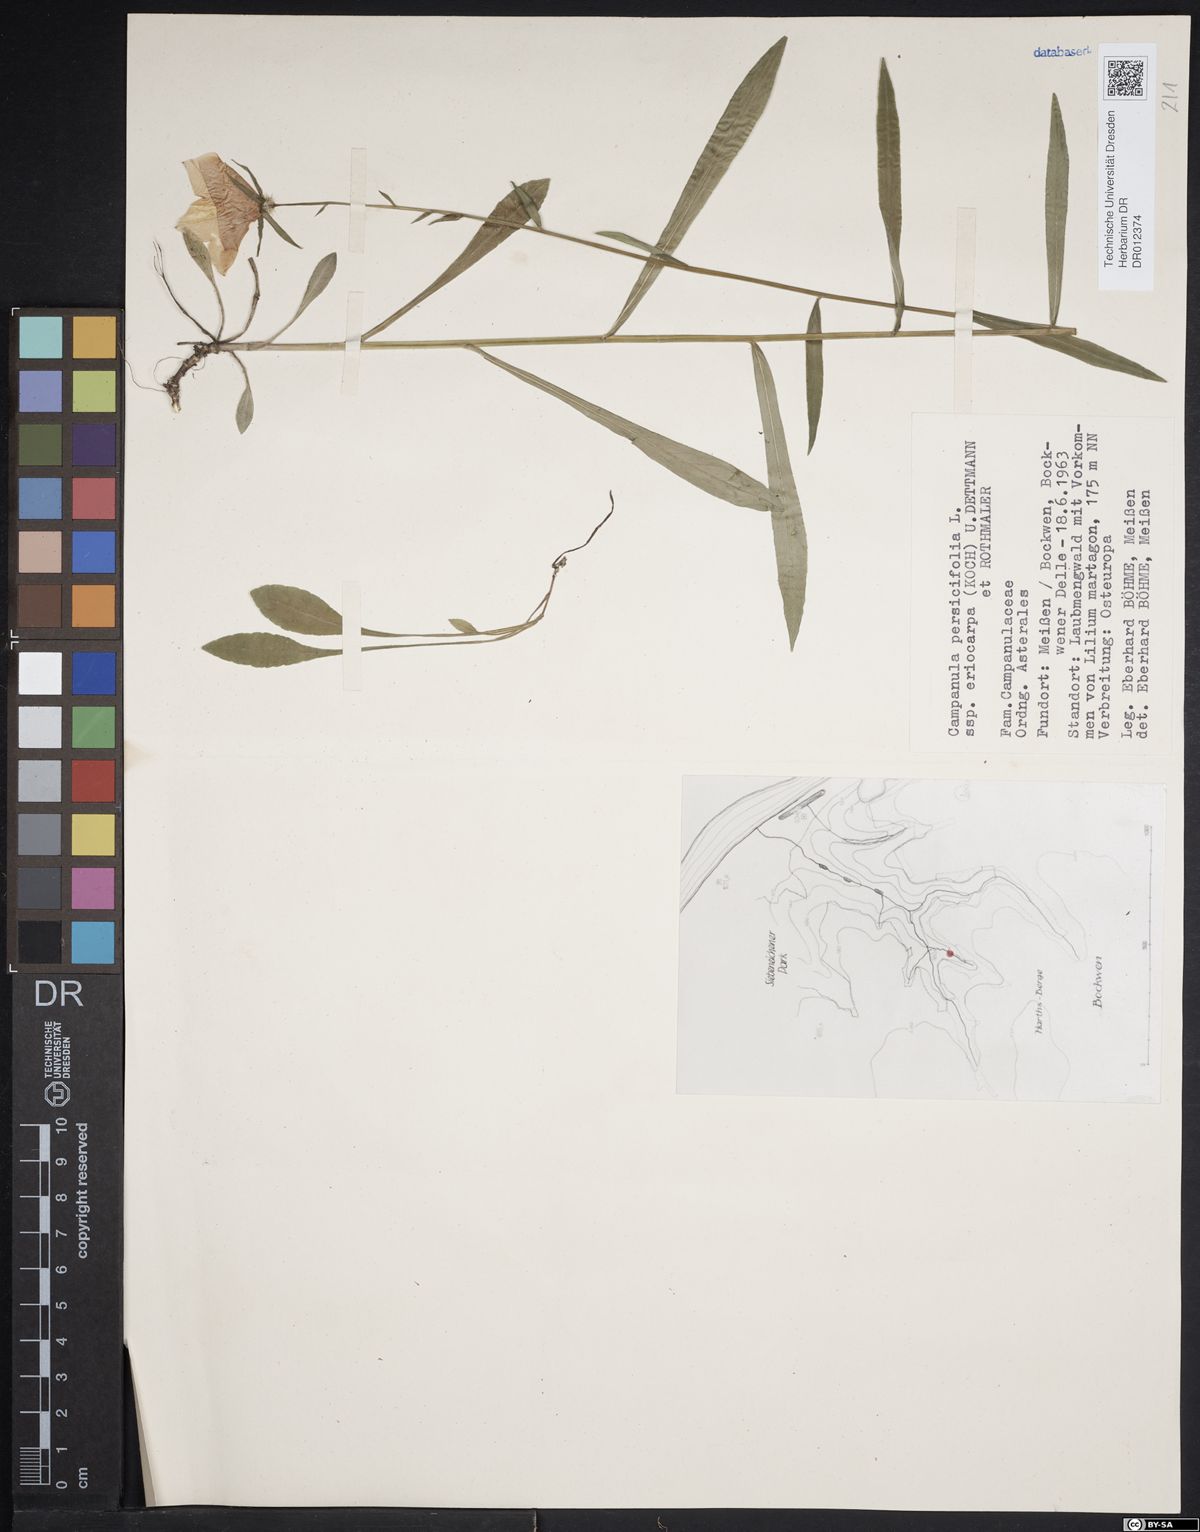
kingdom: Plantae
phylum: Tracheophyta
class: Magnoliopsida
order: Asterales
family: Campanulaceae
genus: Campanula
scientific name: Campanula persicifolia
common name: Peach-leaved bellflower
